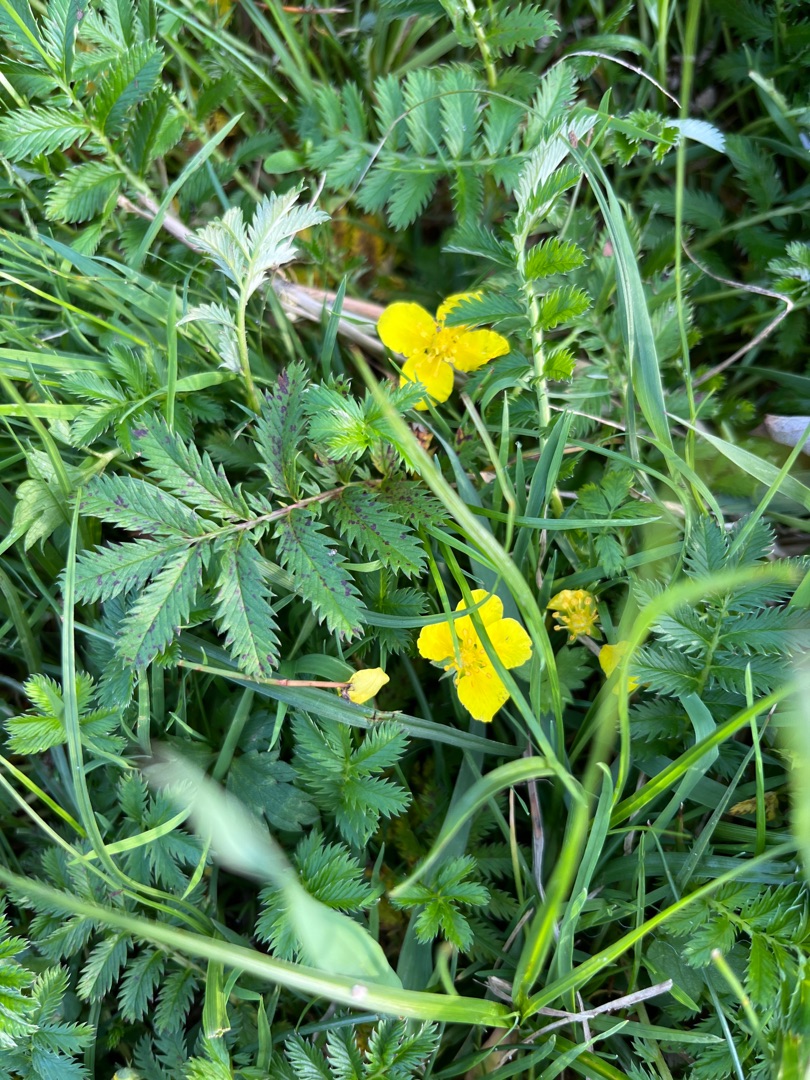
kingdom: Plantae
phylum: Tracheophyta
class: Magnoliopsida
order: Rosales
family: Rosaceae
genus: Argentina
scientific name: Argentina anserina
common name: Gåsepotentil
